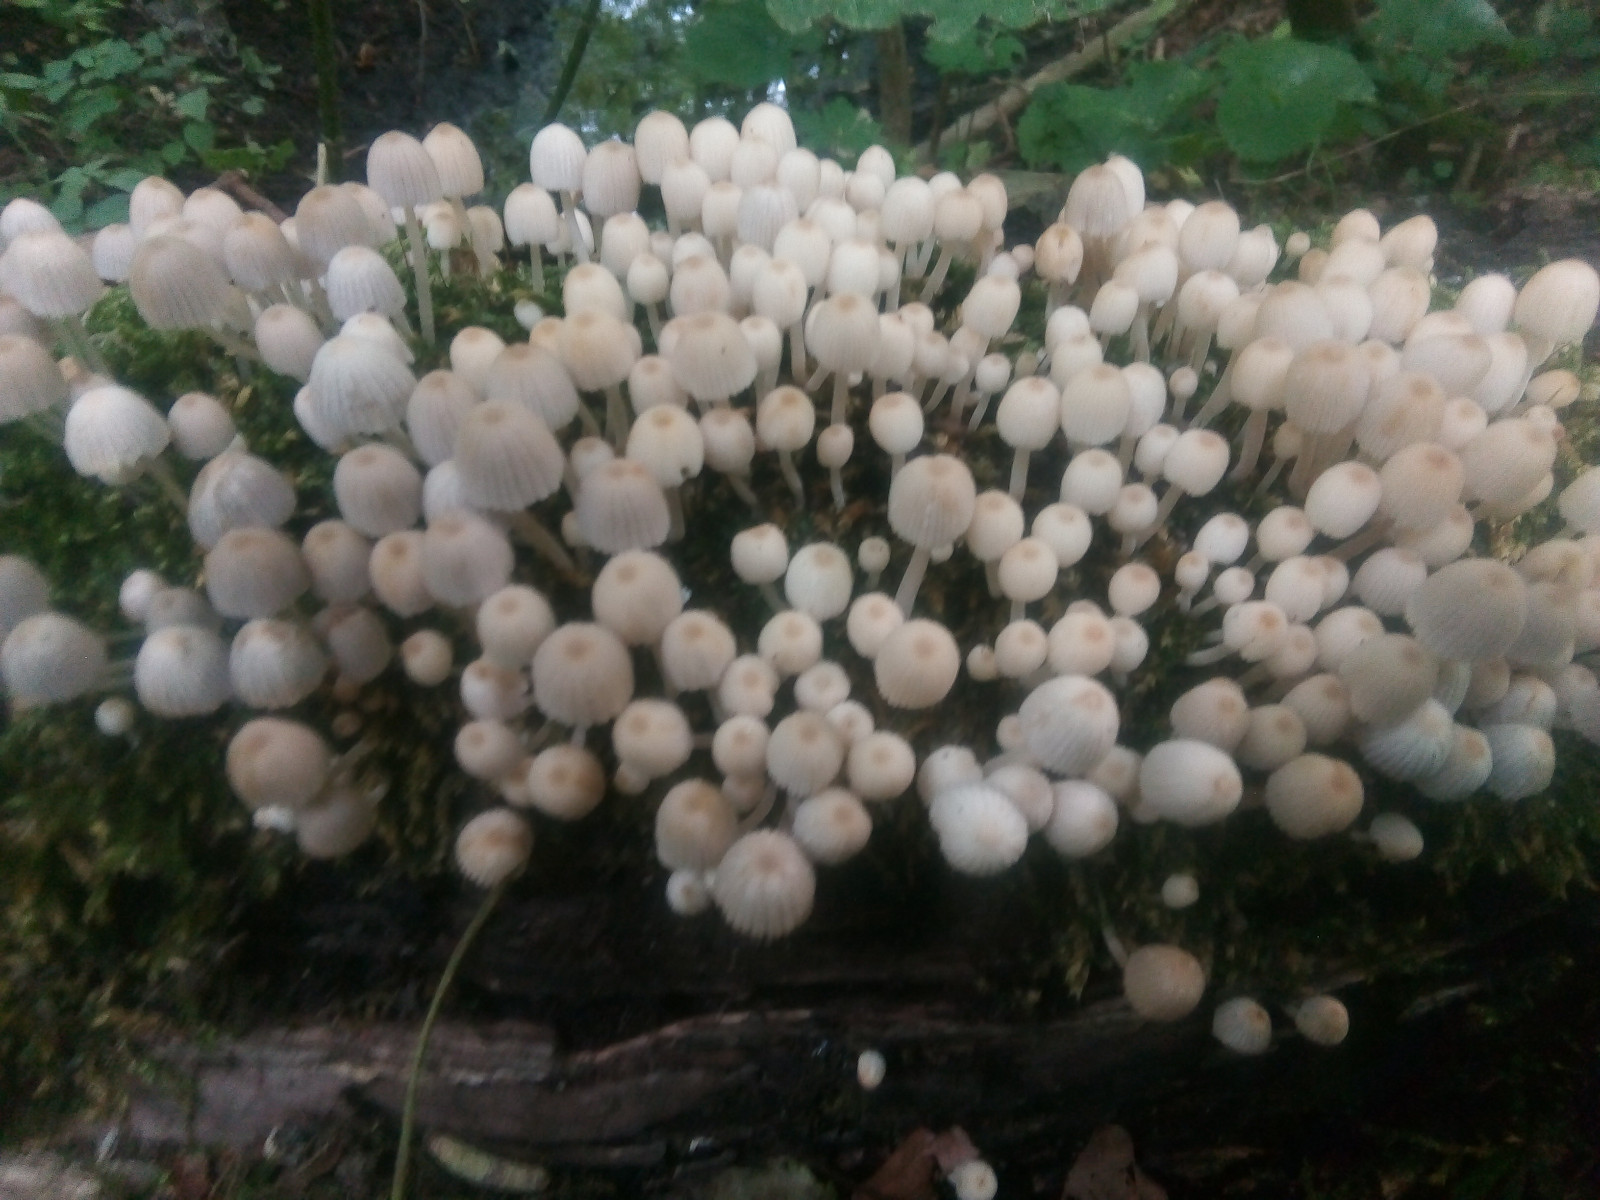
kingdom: Fungi
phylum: Basidiomycota
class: Agaricomycetes
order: Agaricales
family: Psathyrellaceae
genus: Coprinellus
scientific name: Coprinellus disseminatus
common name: bredsået blækhat
